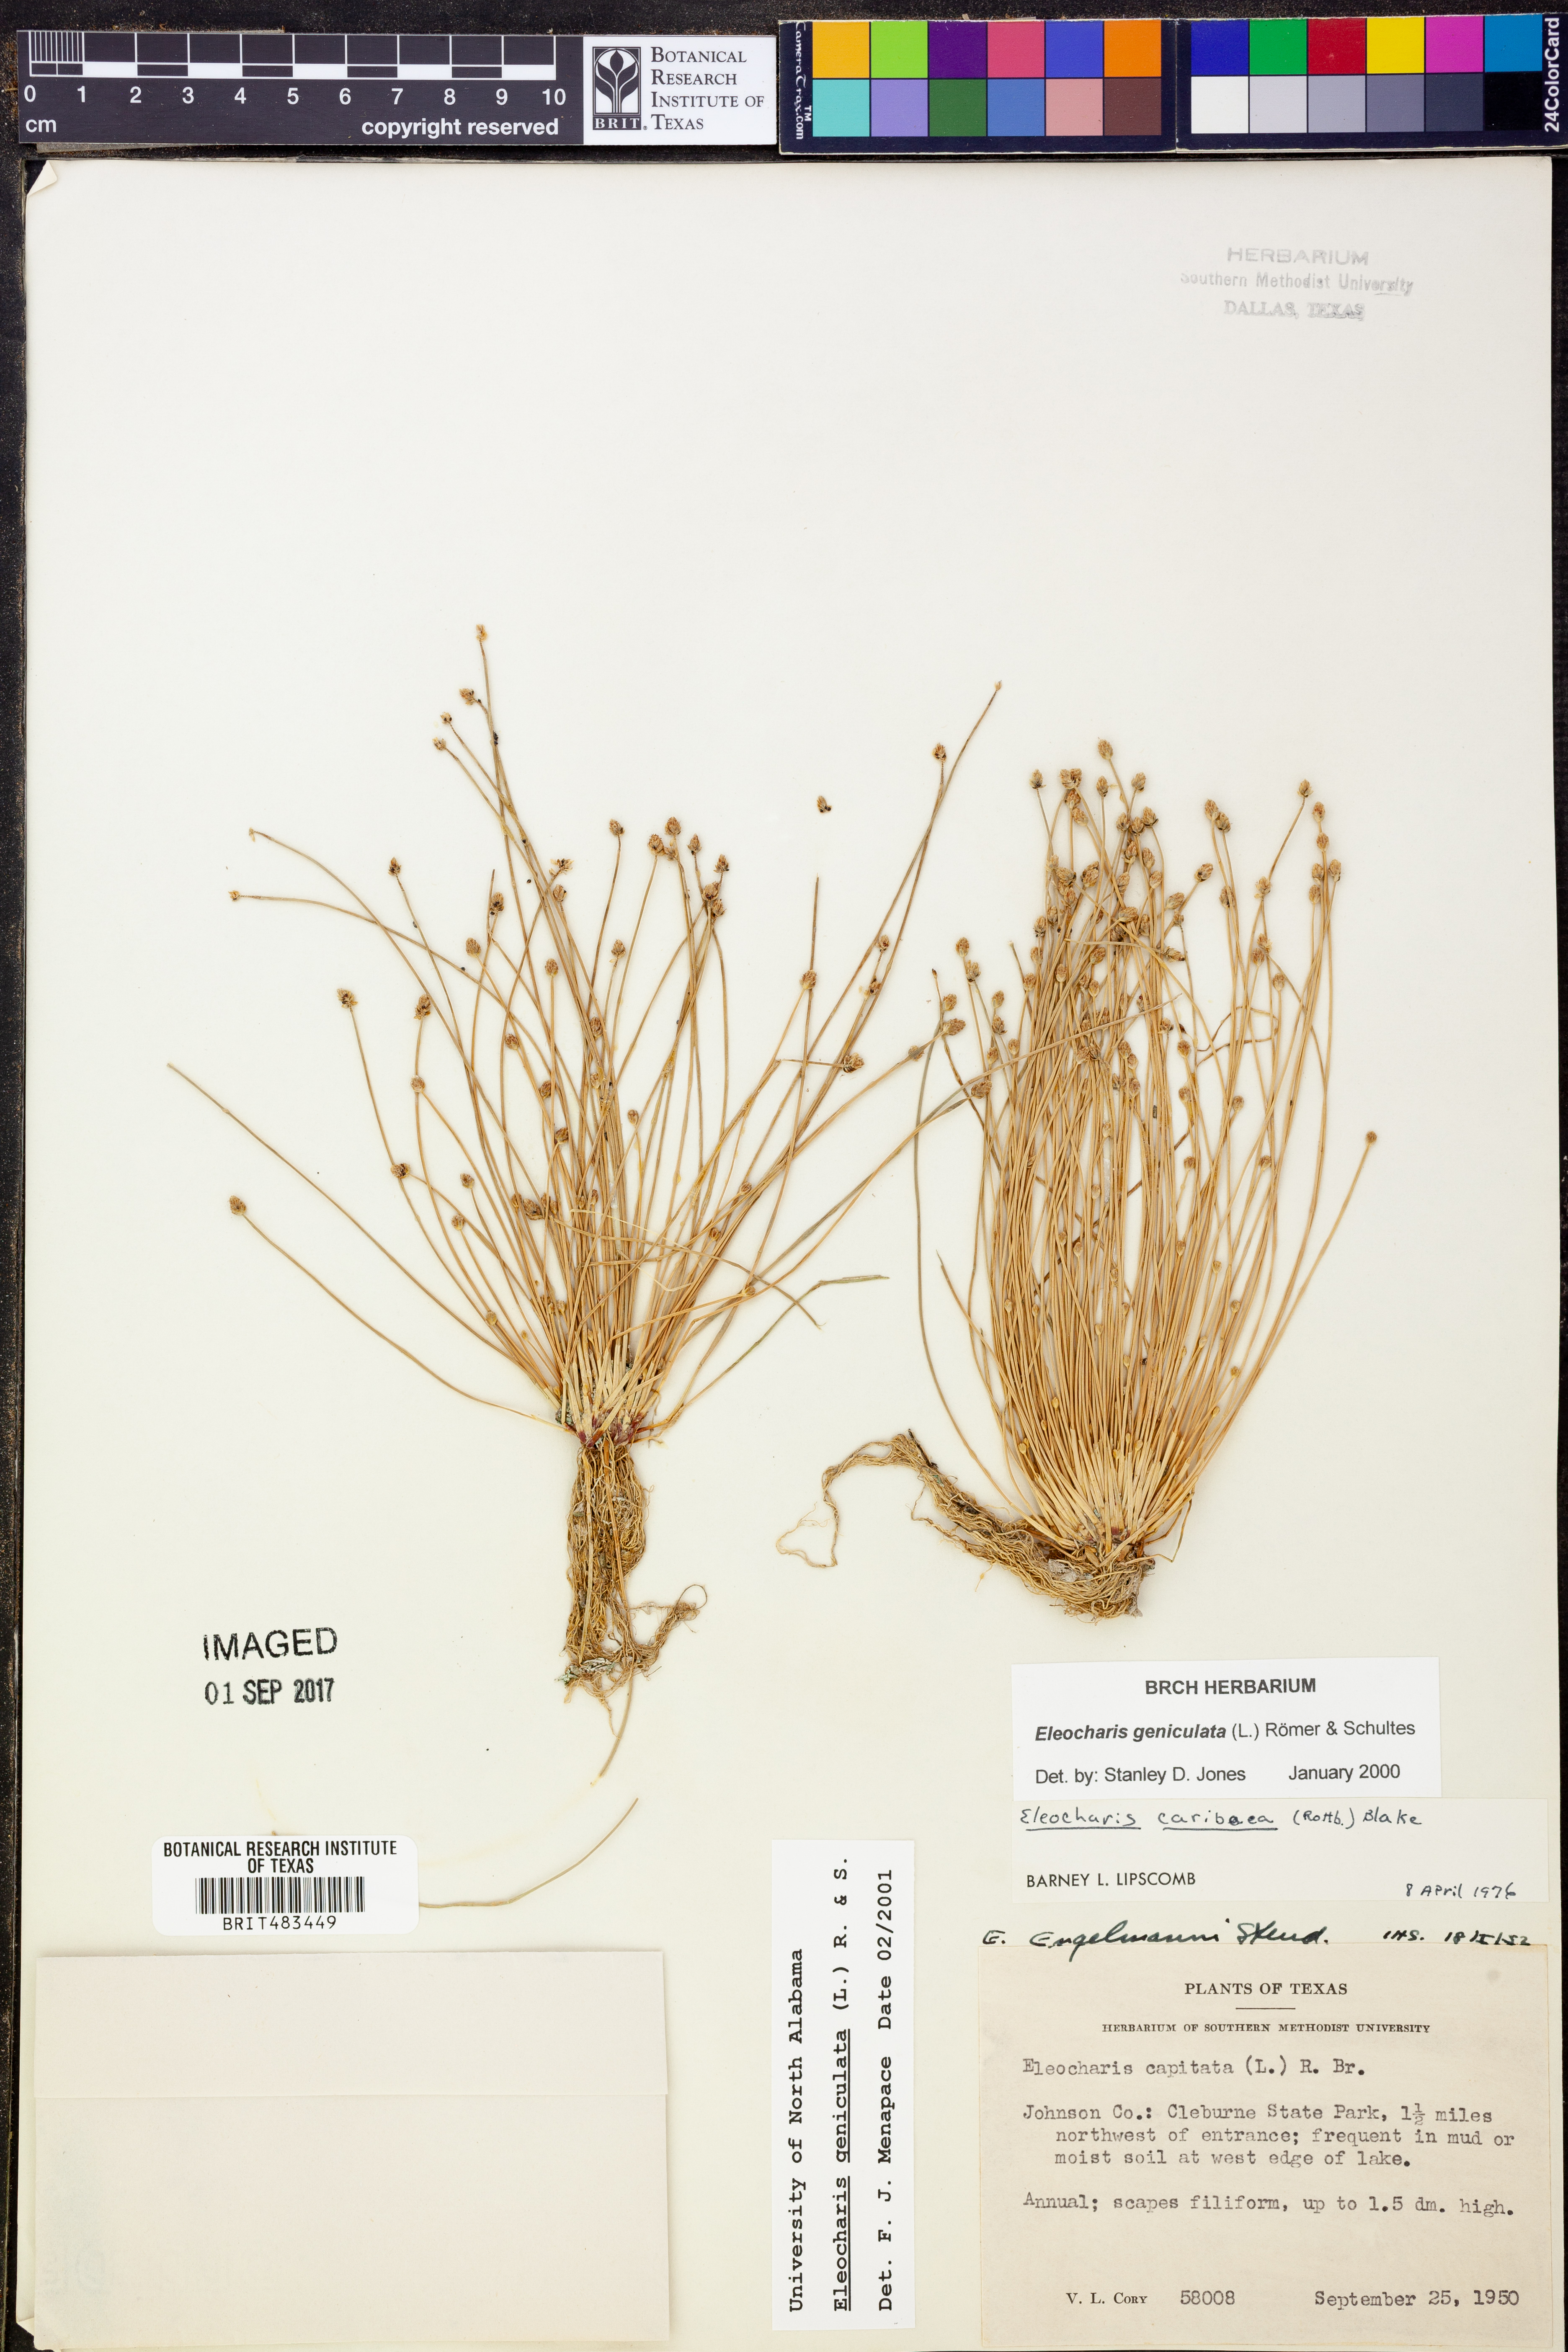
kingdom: Plantae
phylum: Tracheophyta
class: Liliopsida
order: Poales
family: Cyperaceae
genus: Eleocharis
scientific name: Eleocharis geniculata
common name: Canada spikesedge
